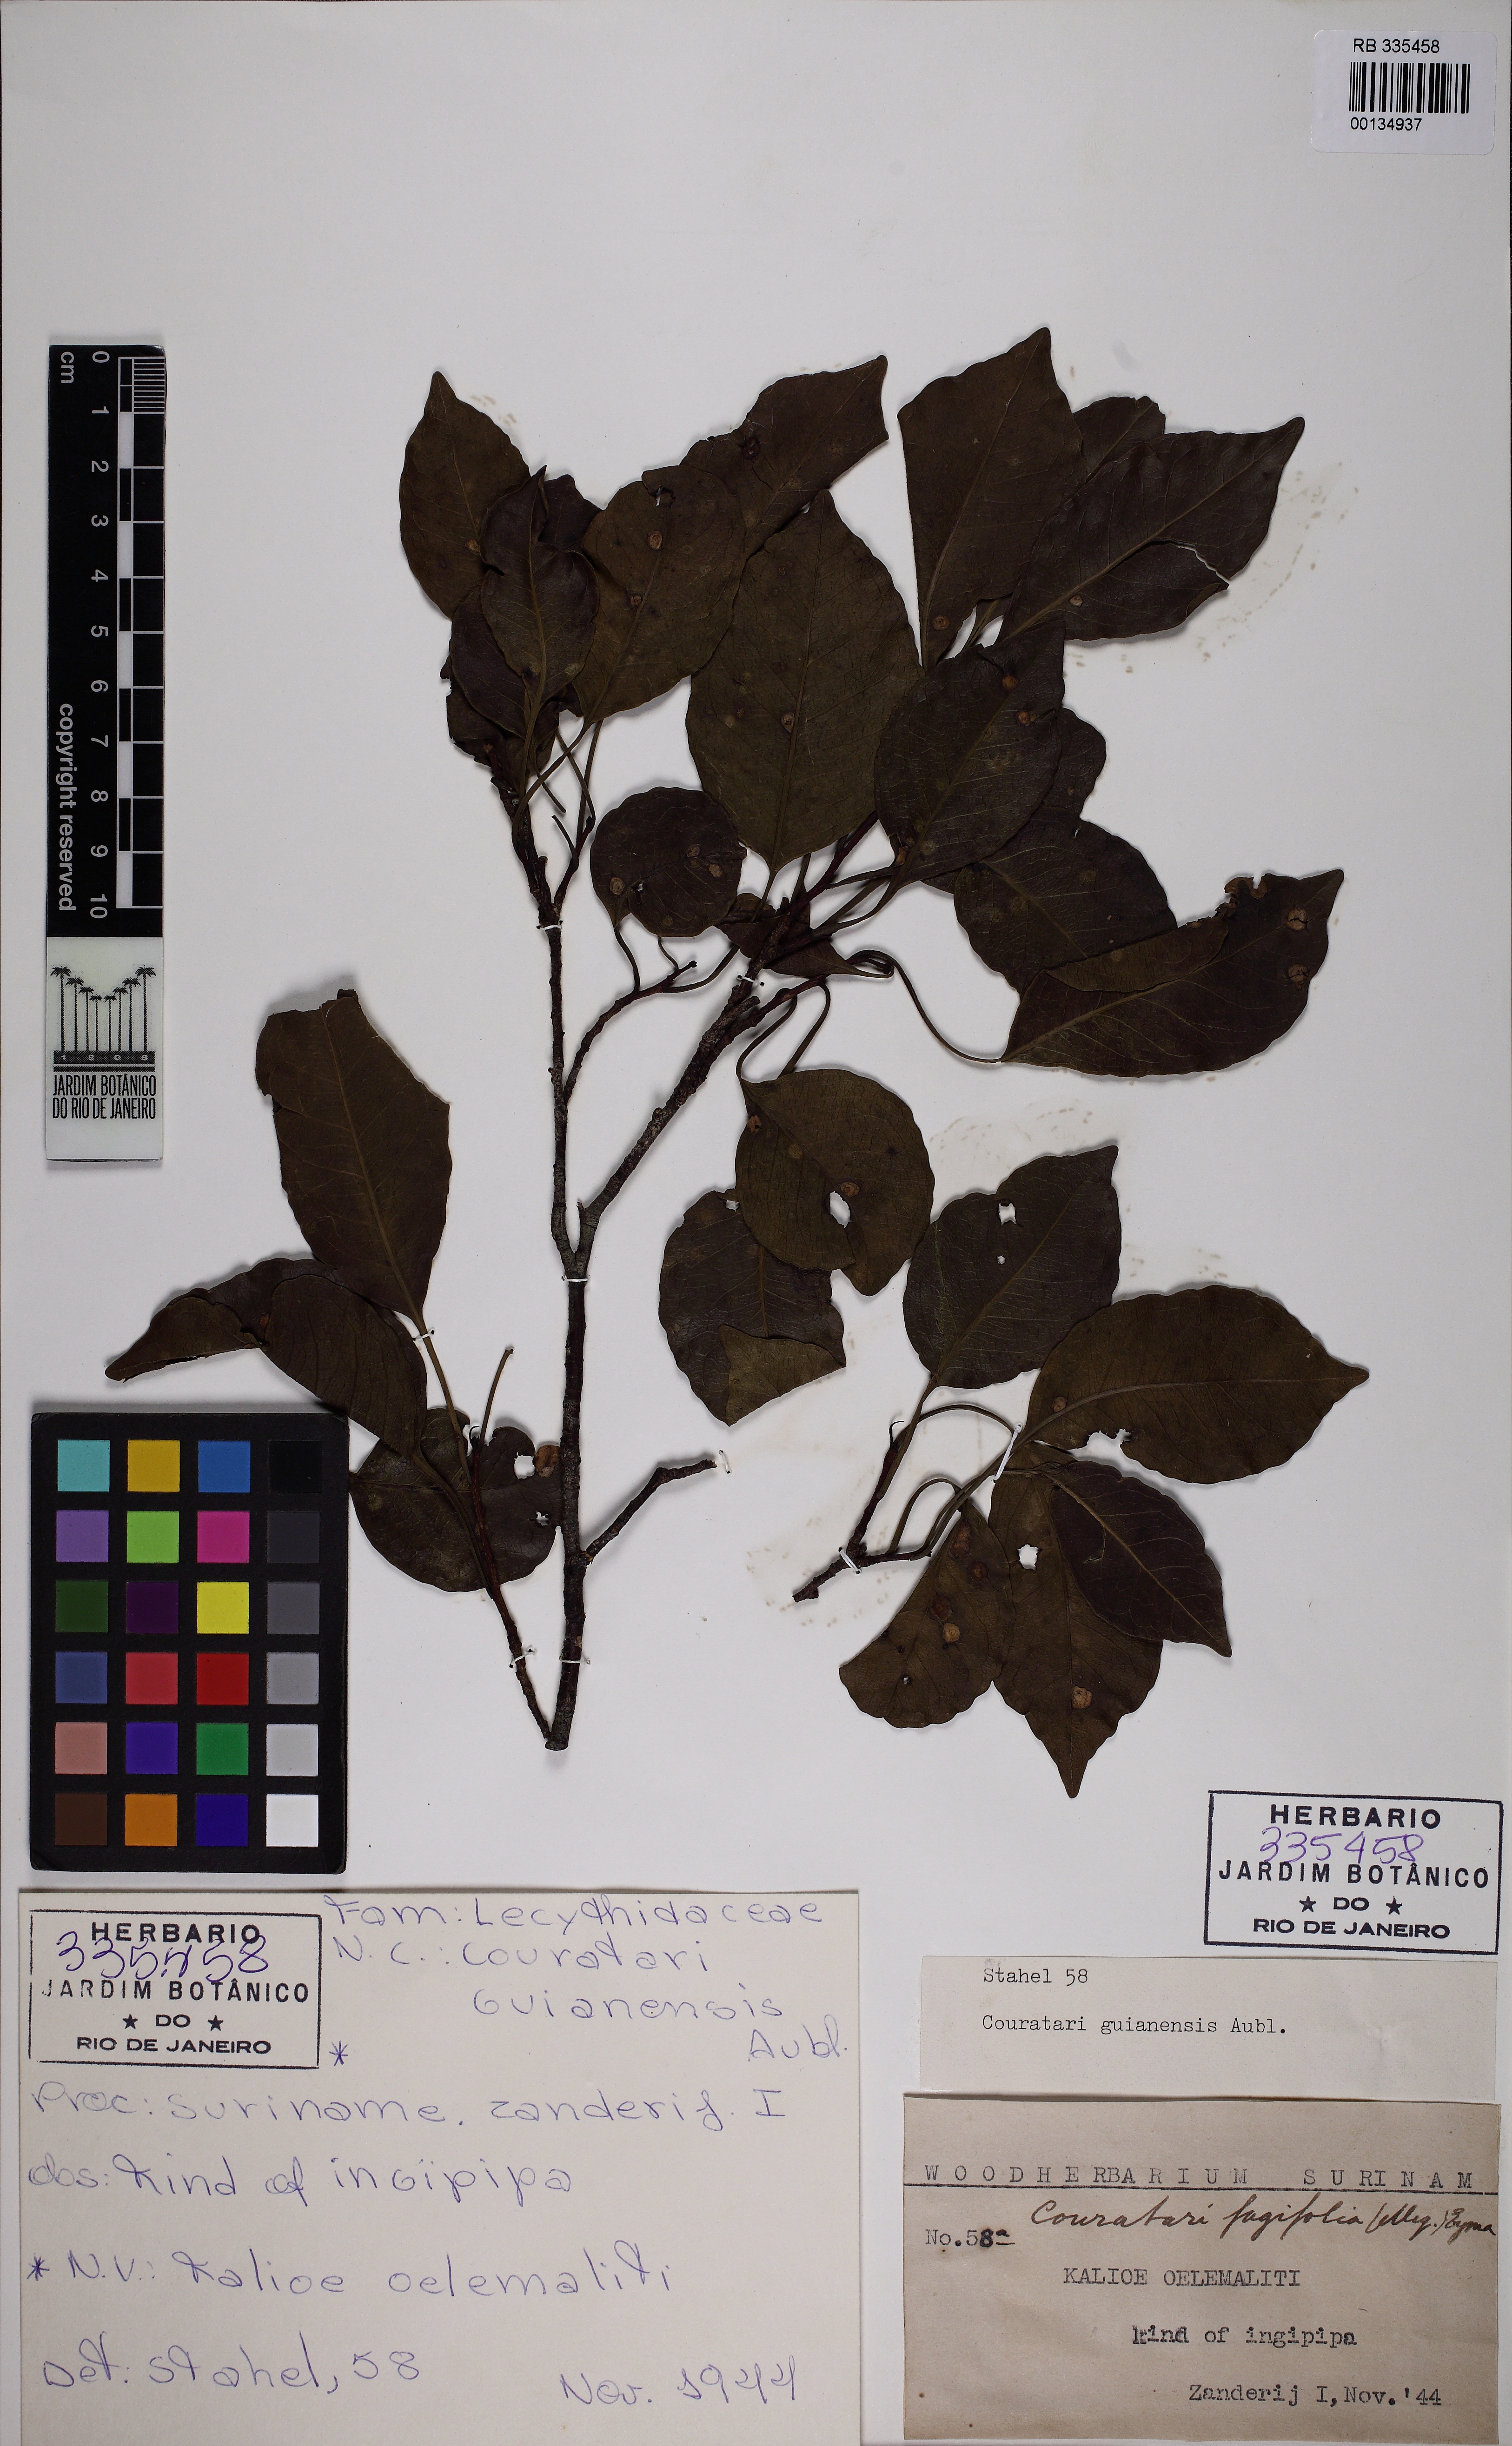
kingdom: Plantae
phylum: Tracheophyta
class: Magnoliopsida
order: Ericales
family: Lecythidaceae
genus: Couratari
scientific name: Couratari multiflora
